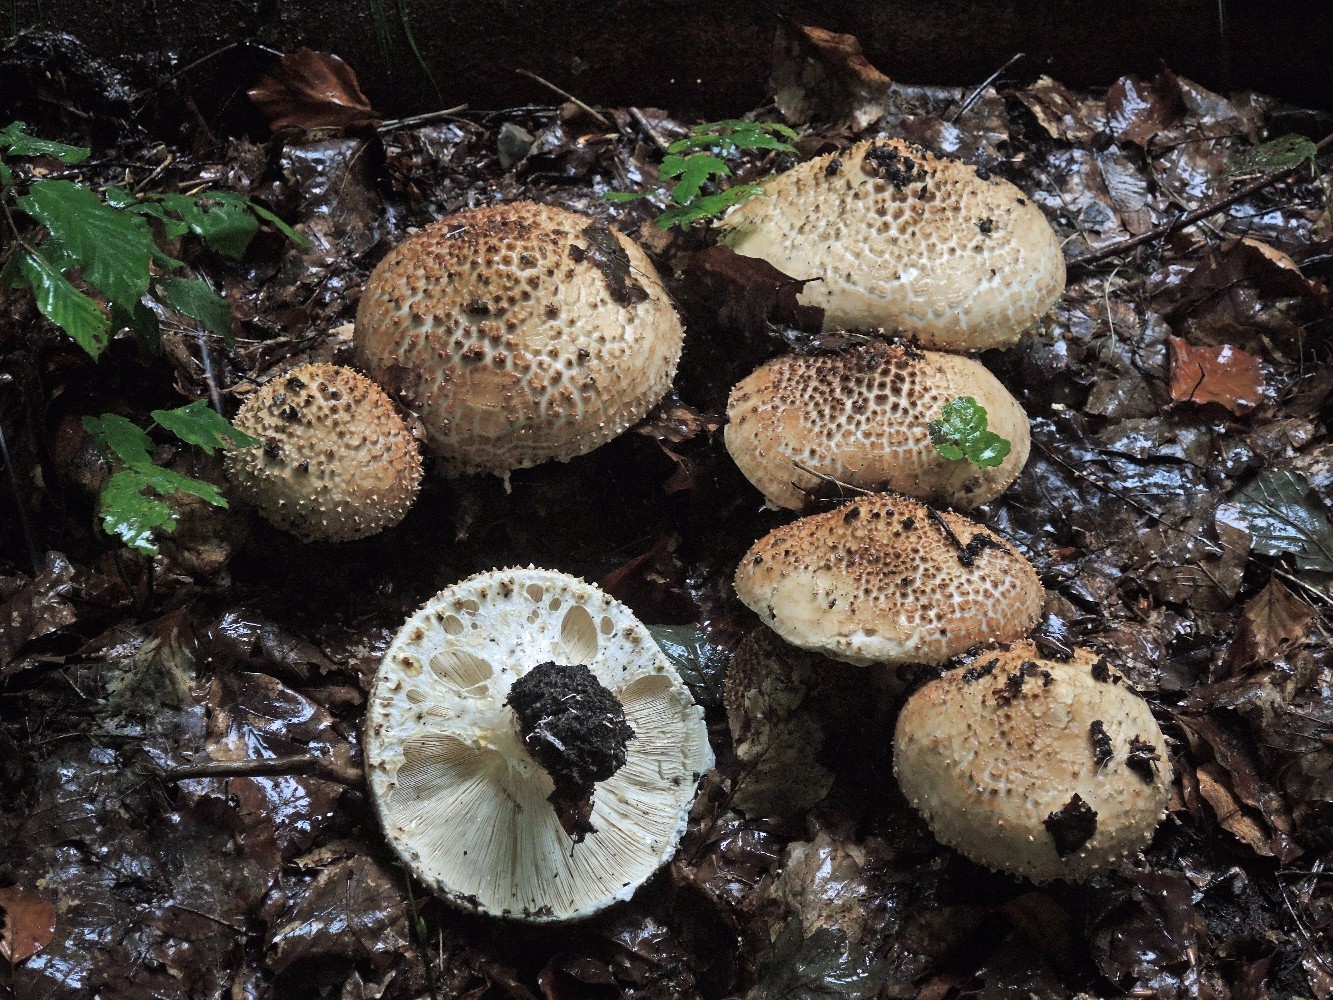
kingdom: Fungi
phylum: Basidiomycota
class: Agaricomycetes
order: Agaricales
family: Agaricaceae
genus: Echinoderma
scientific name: Echinoderma asperum
